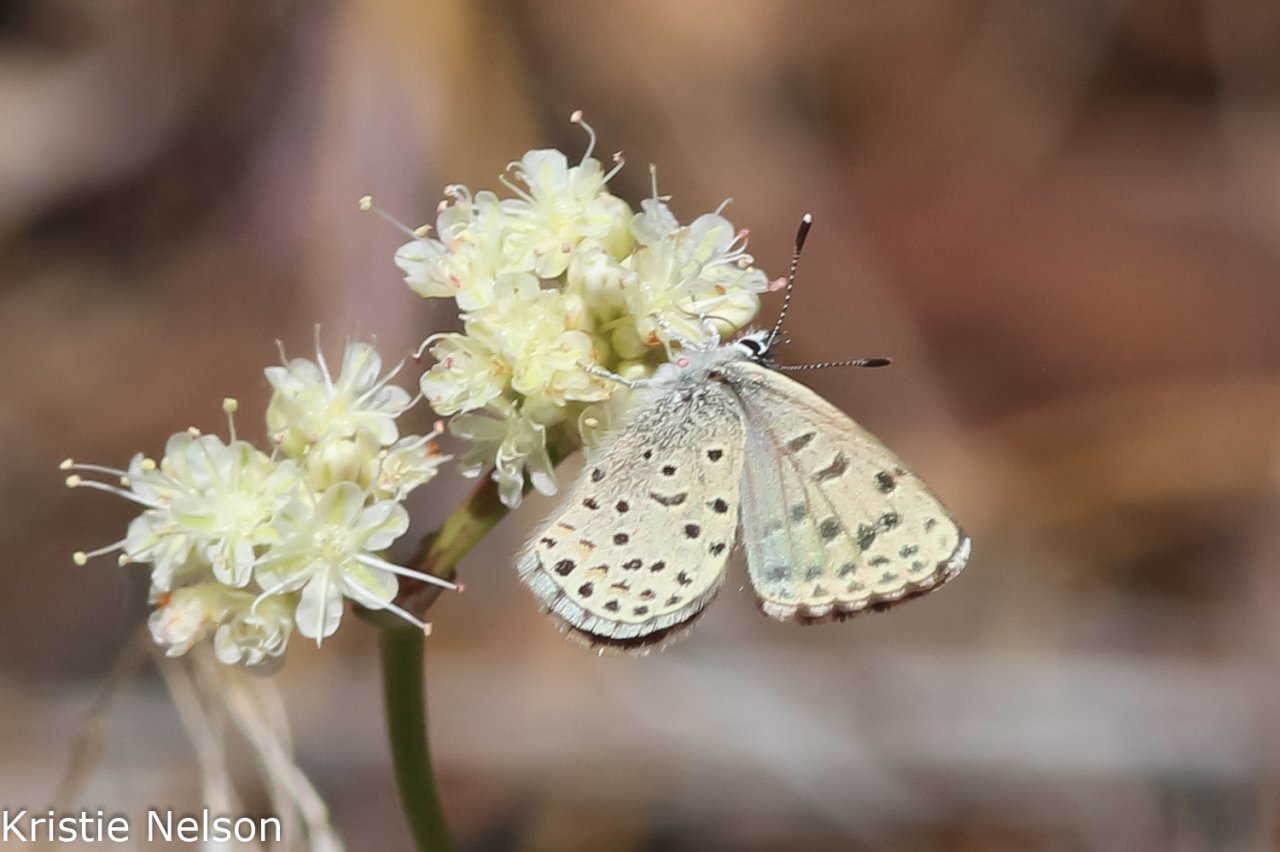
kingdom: Animalia
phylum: Arthropoda
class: Insecta
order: Lepidoptera
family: Lycaenidae
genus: Euphilotes
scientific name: Euphilotes enoptes
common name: Dotted Blue
